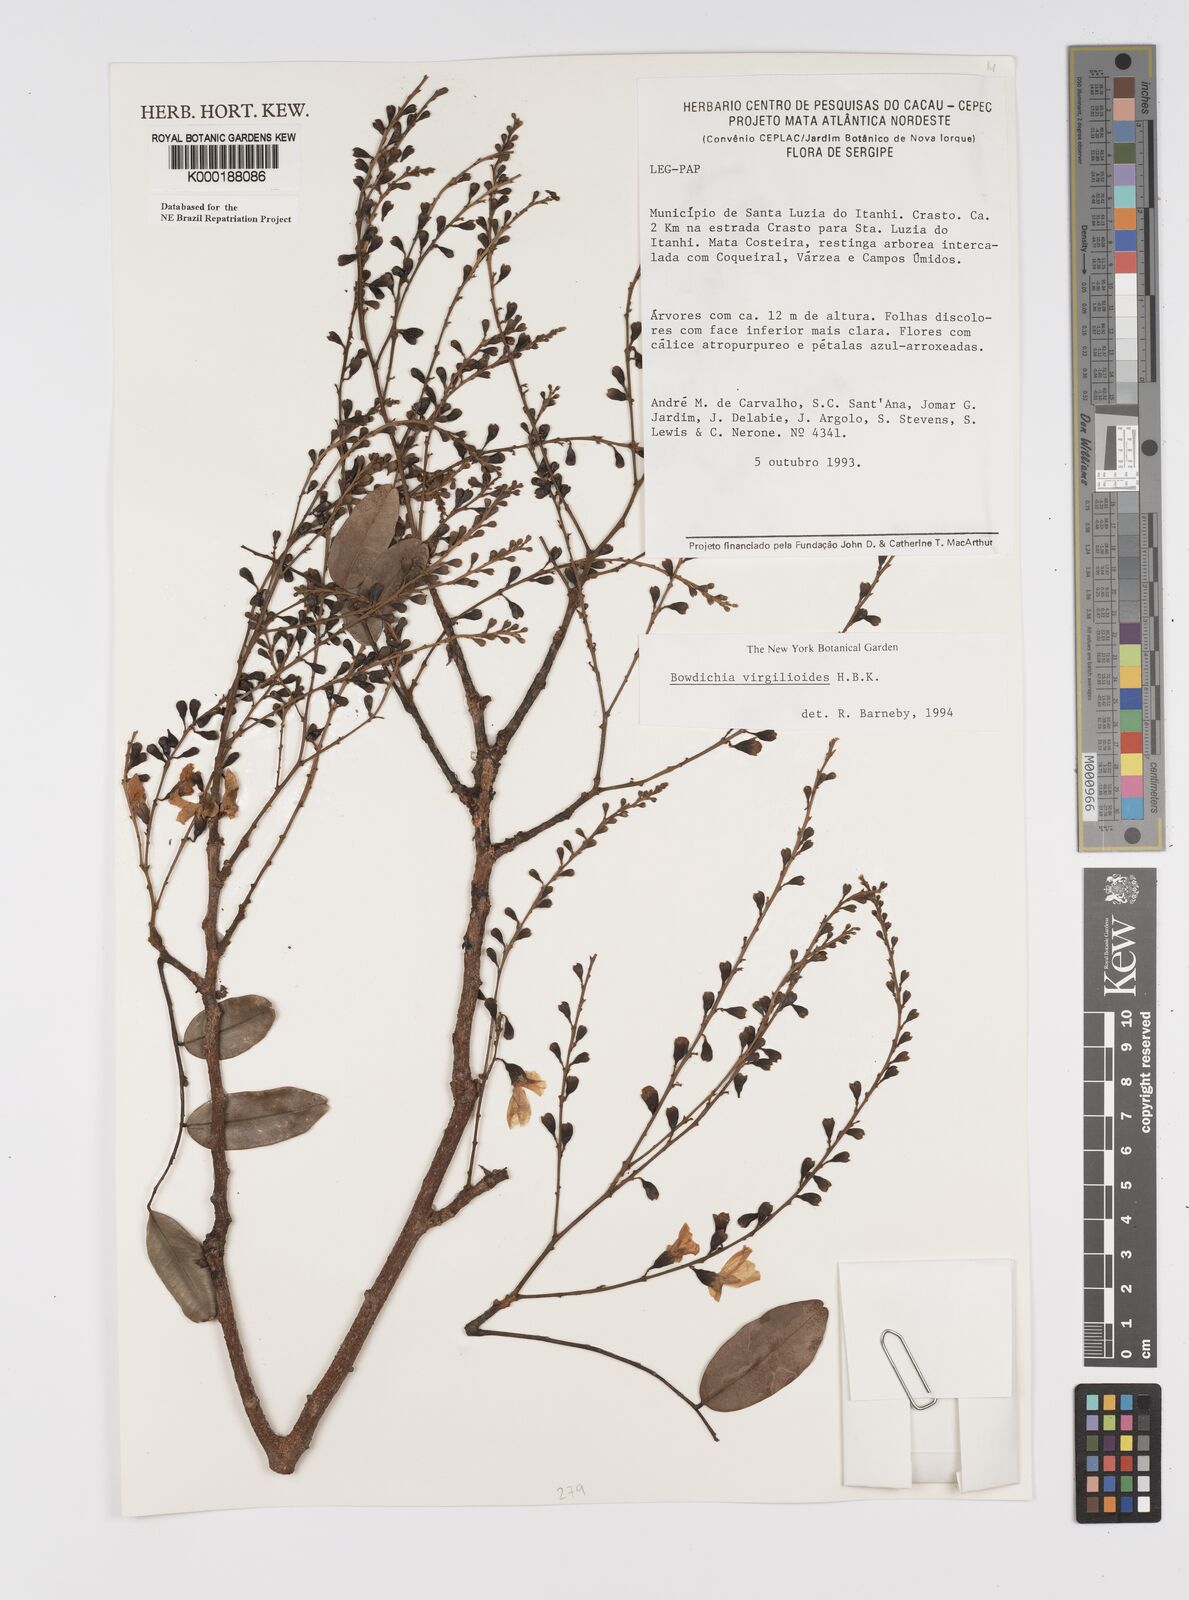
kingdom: Plantae
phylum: Tracheophyta
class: Magnoliopsida
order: Fabales
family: Fabaceae
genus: Bowdichia
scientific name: Bowdichia virgilioides
